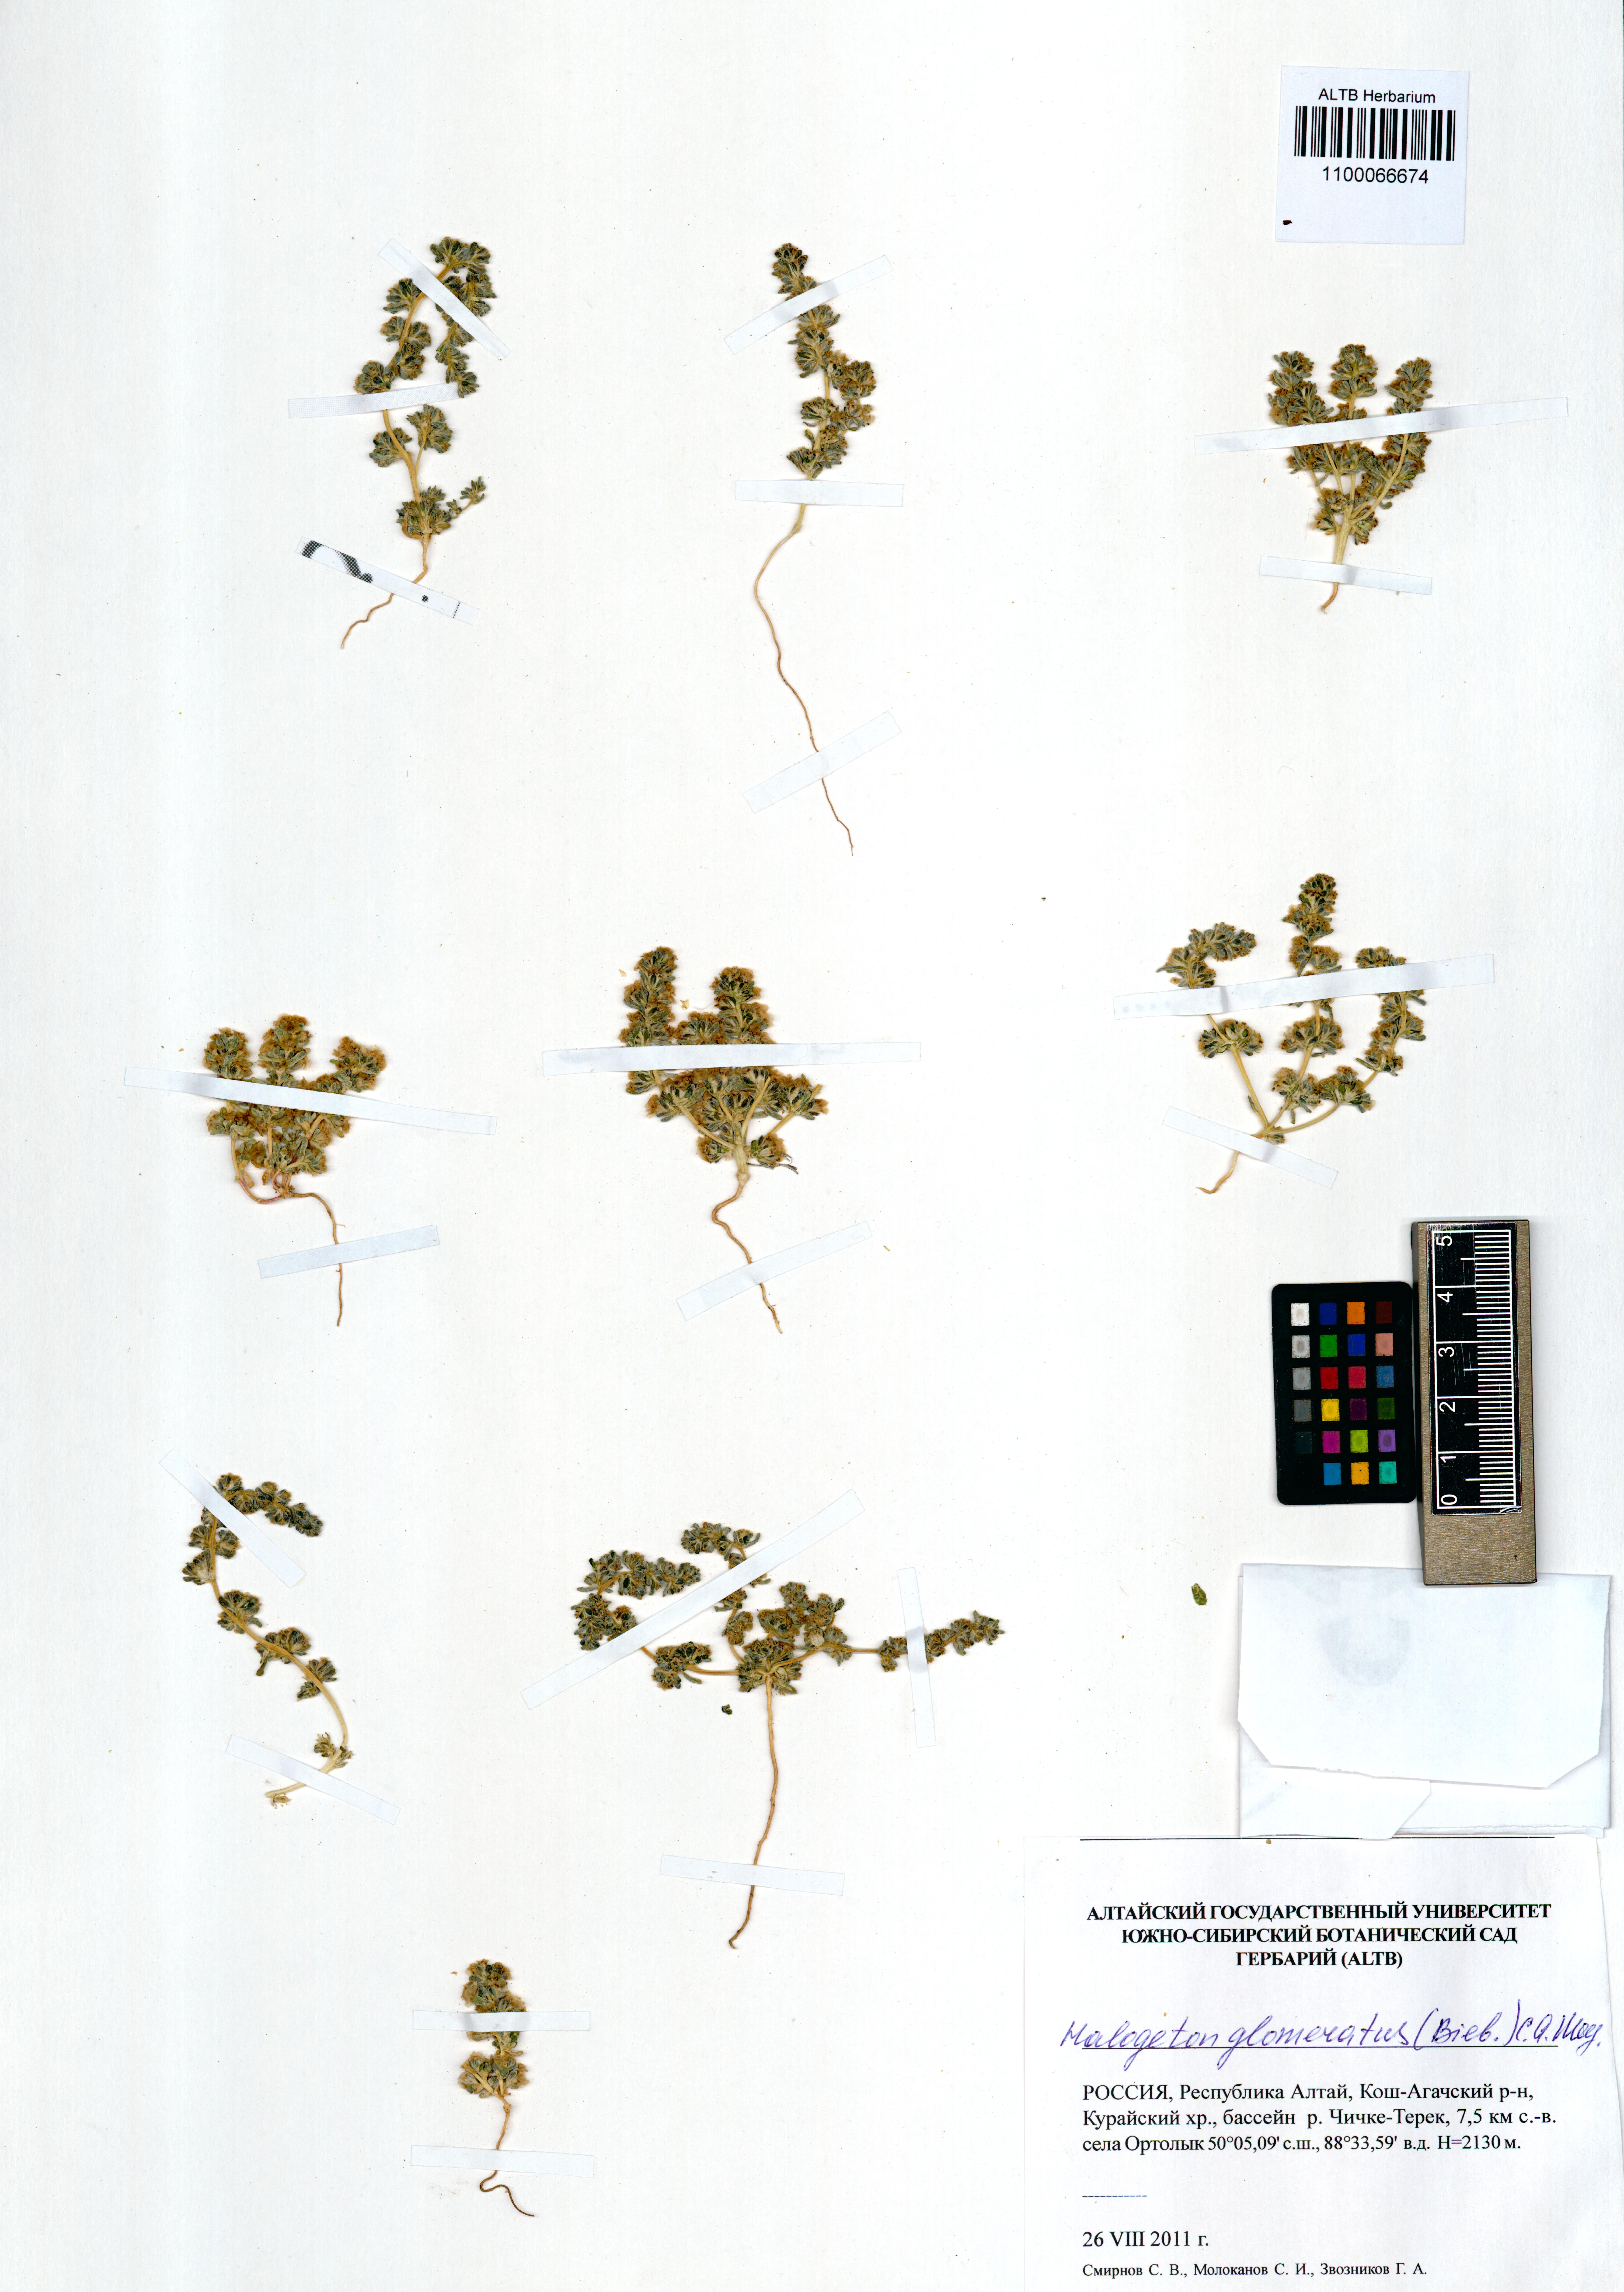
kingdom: Plantae
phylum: Tracheophyta
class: Magnoliopsida
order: Caryophyllales
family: Amaranthaceae
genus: Halogeton
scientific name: Halogeton glomeratus
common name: Saltlover
